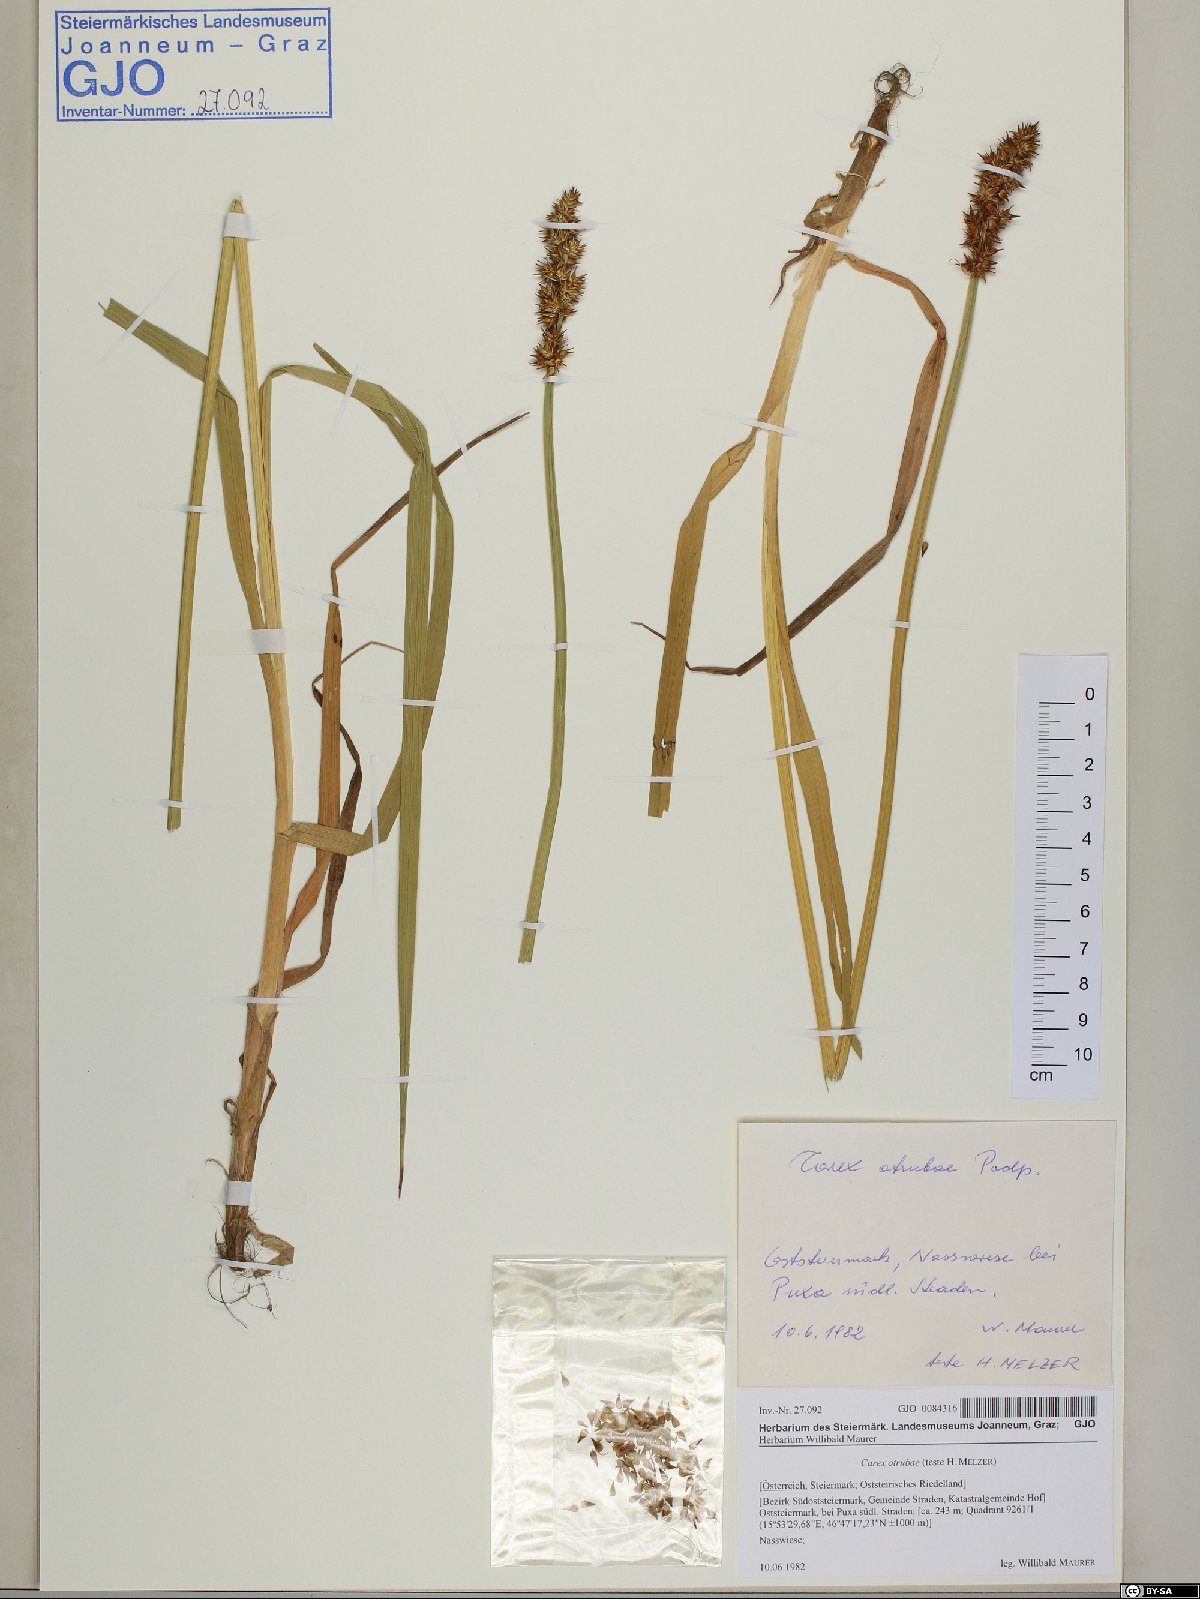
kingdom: Plantae
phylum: Tracheophyta
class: Liliopsida
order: Poales
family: Cyperaceae
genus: Carex
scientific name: Carex otrubae
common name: False fox-sedge
